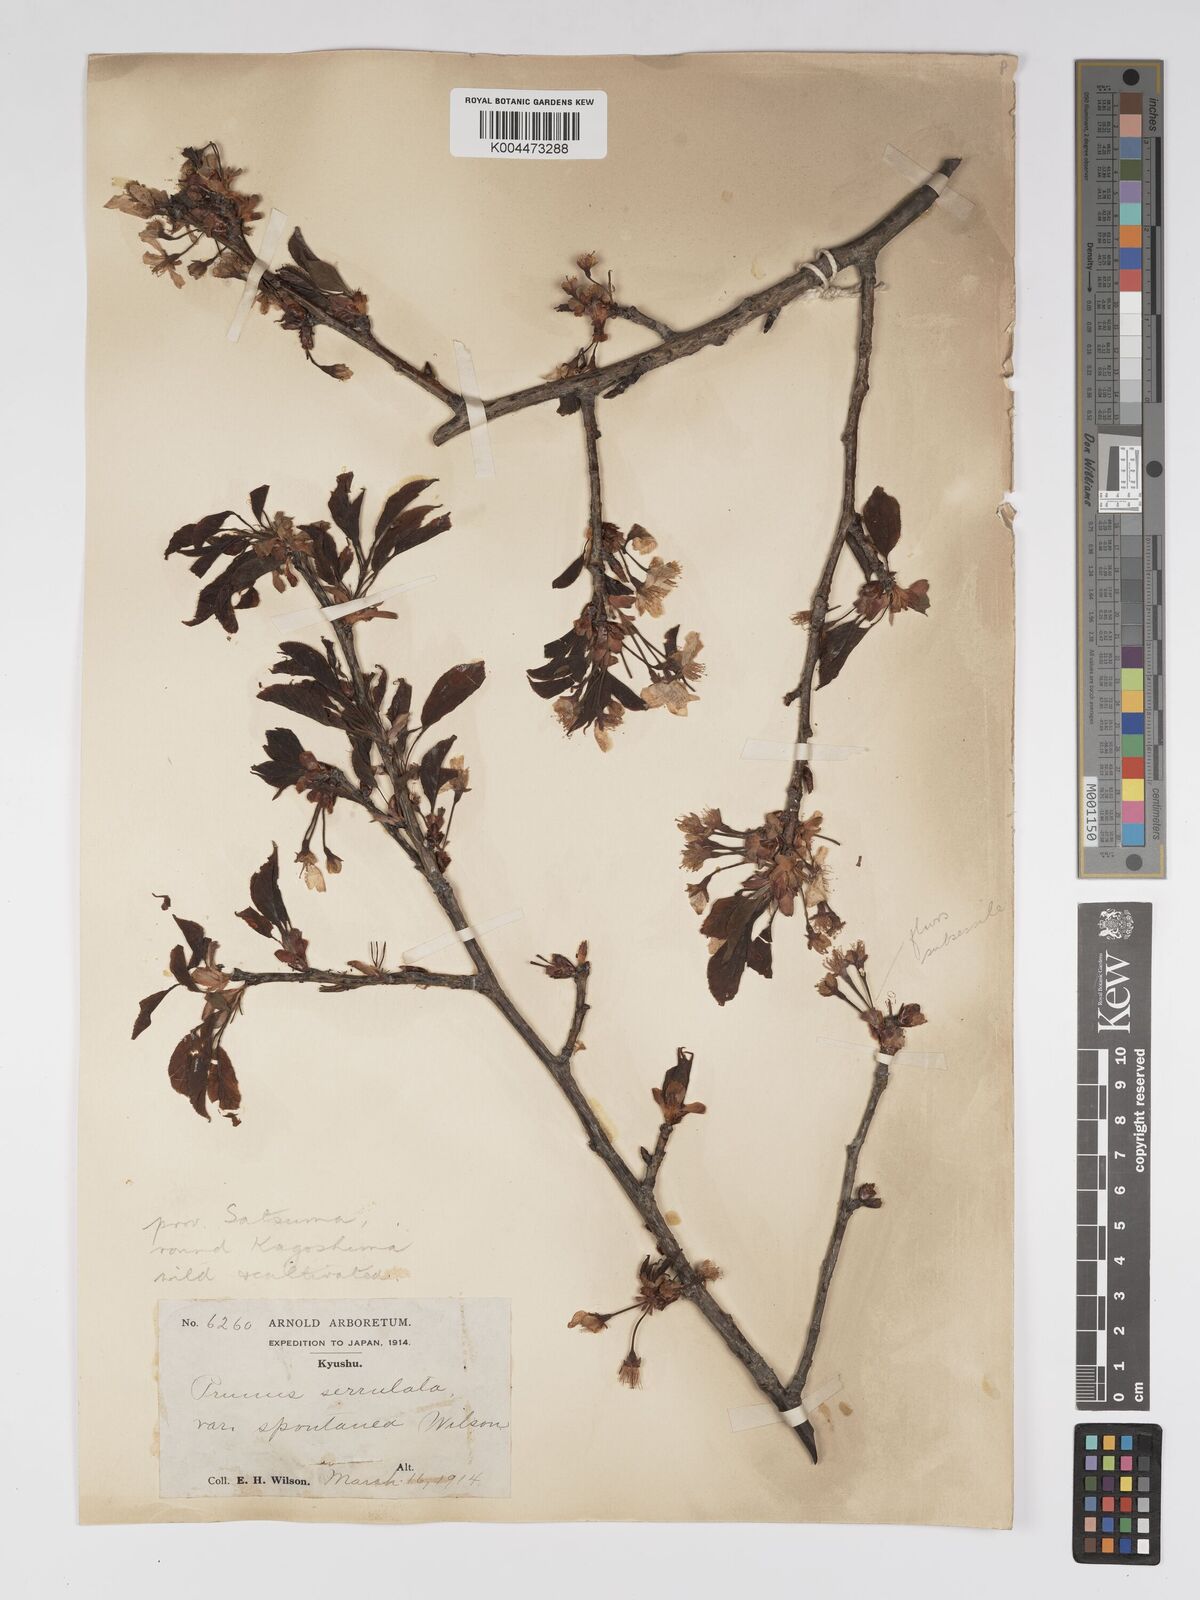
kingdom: Plantae
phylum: Tracheophyta
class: Magnoliopsida
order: Rosales
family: Rosaceae
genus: Prunus
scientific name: Prunus serrulata
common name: Japanese cherry
